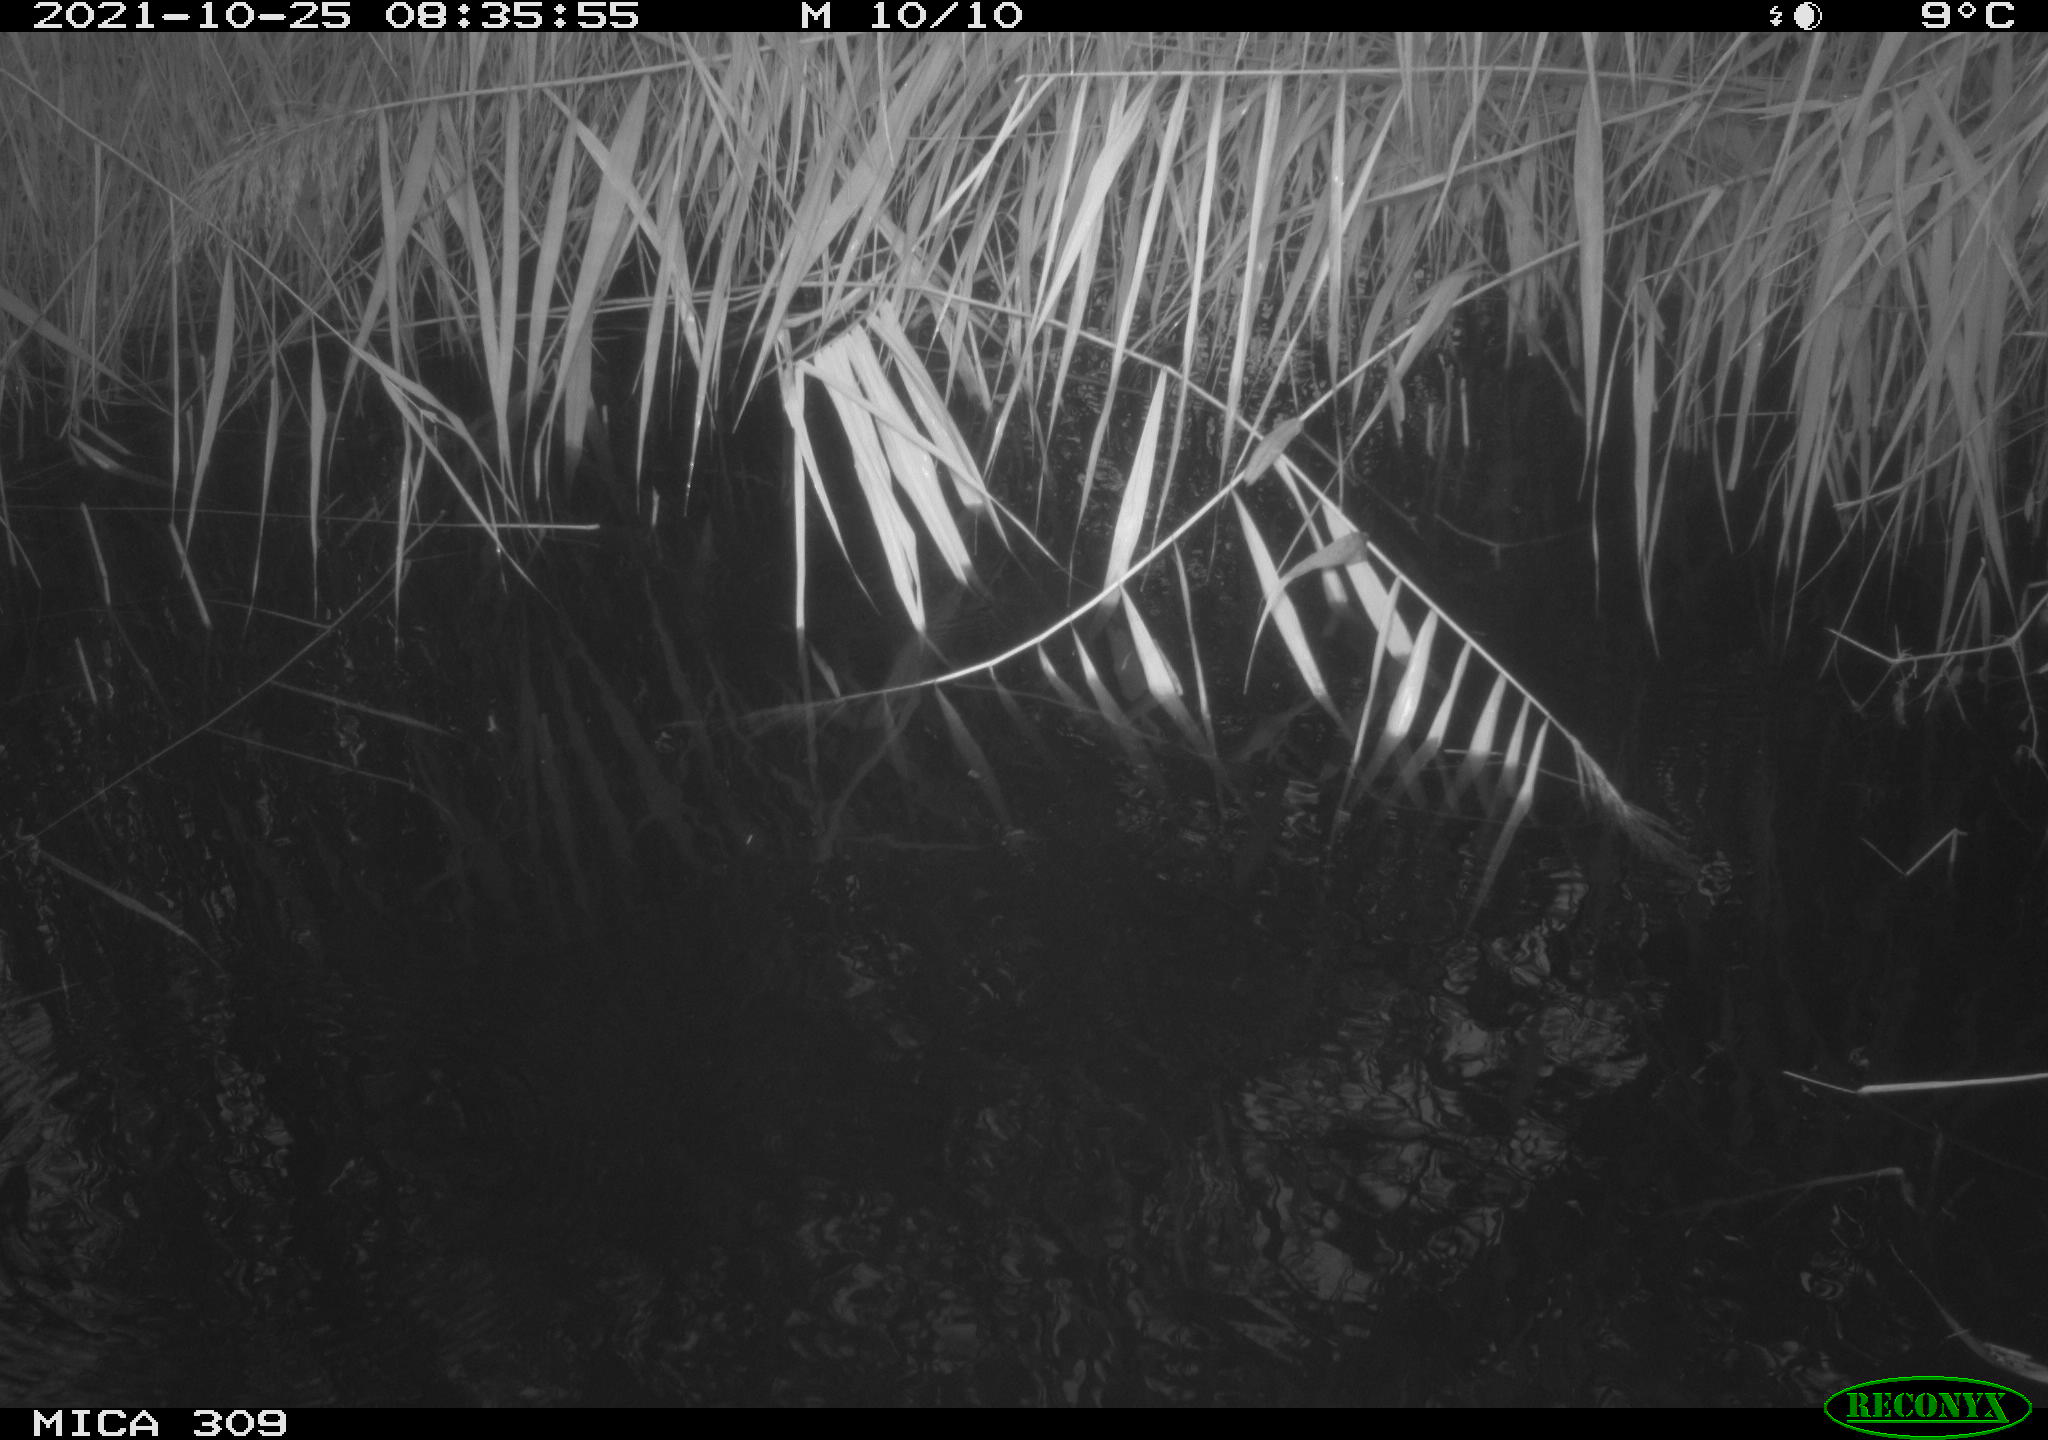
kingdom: Animalia
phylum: Chordata
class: Aves
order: Gruiformes
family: Rallidae
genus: Gallinula
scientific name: Gallinula chloropus
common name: Common moorhen
